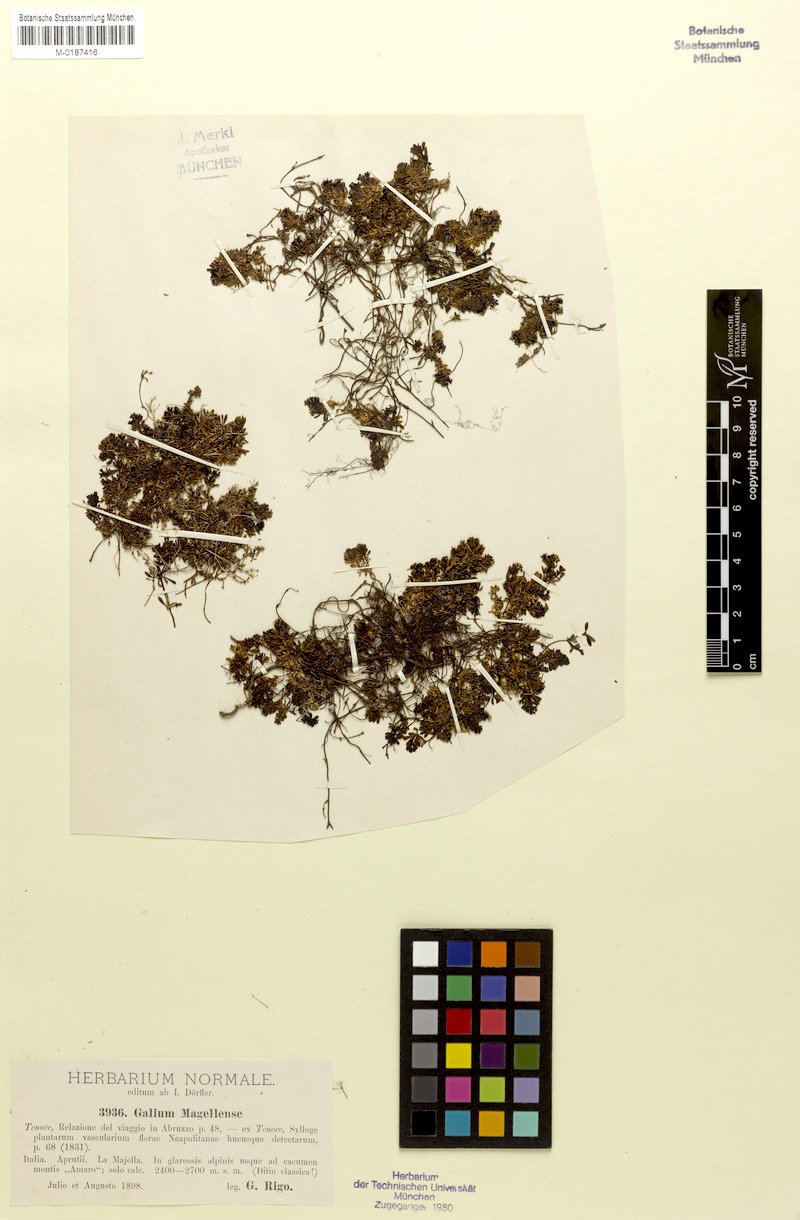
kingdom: Plantae
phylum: Tracheophyta
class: Magnoliopsida
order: Gentianales
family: Rubiaceae
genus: Galium
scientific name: Galium magellense
